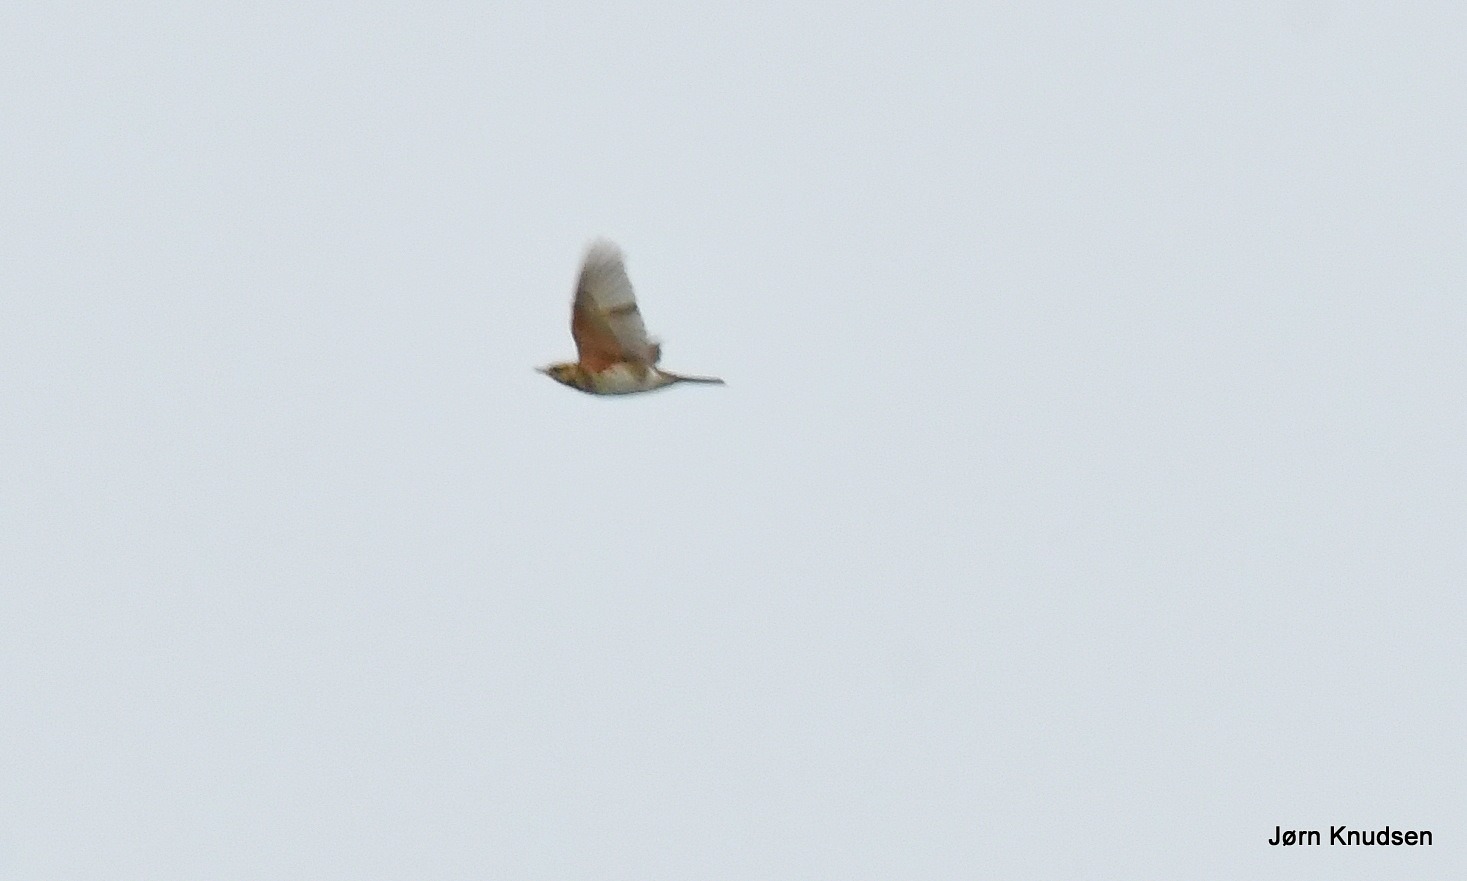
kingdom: Animalia
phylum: Chordata
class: Aves
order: Passeriformes
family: Turdidae
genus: Turdus
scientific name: Turdus iliacus
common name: Vindrossel
